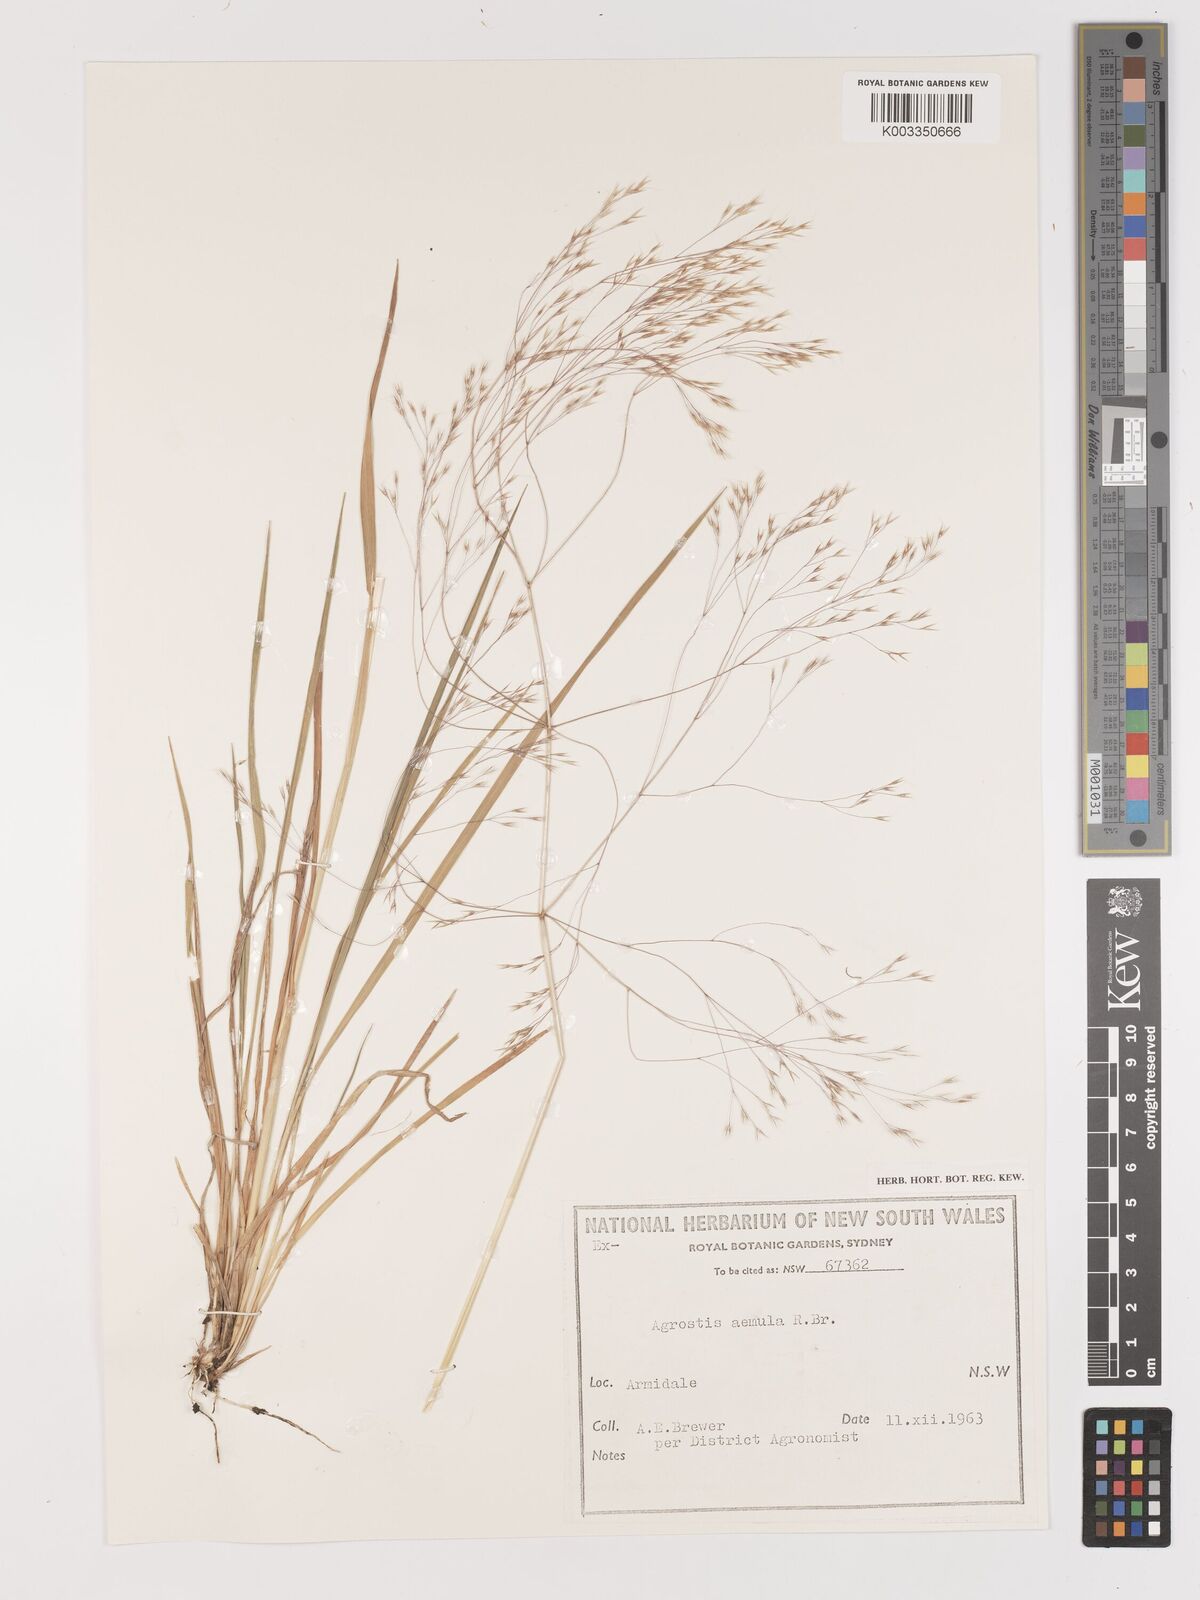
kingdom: Plantae
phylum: Tracheophyta
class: Liliopsida
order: Poales
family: Poaceae
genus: Lachnagrostis
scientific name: Lachnagrostis aemula
